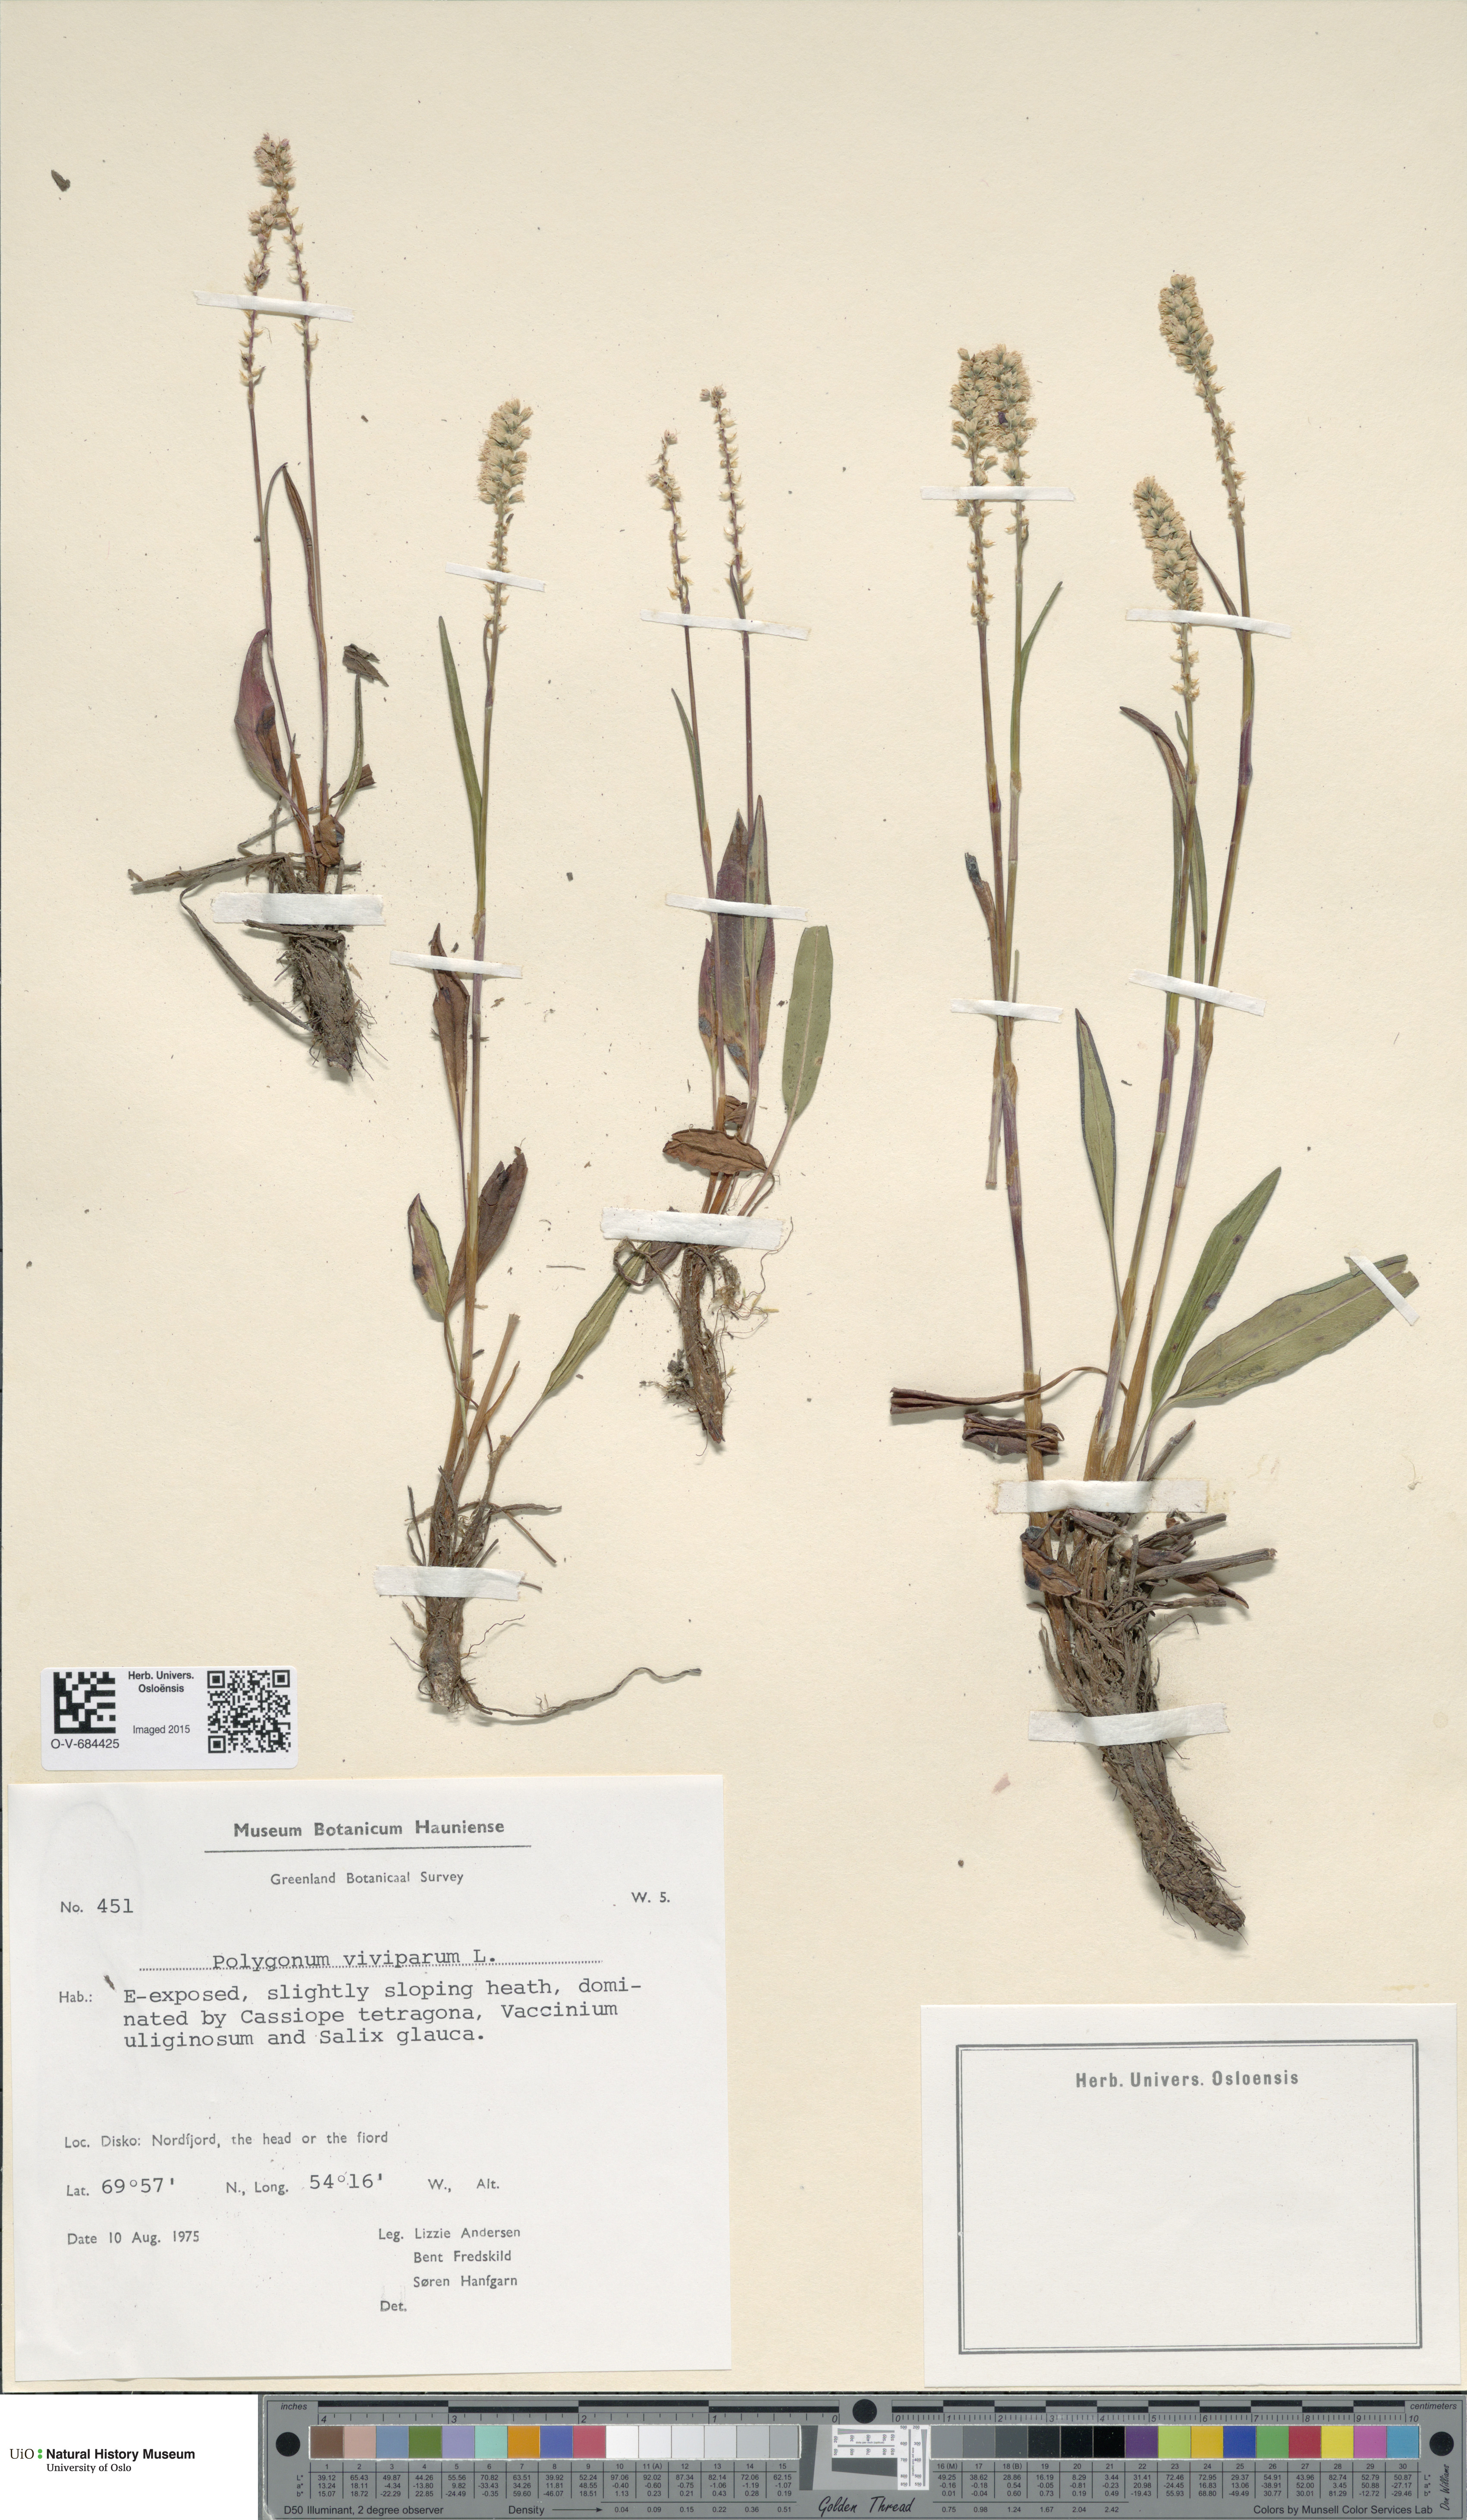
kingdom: Plantae
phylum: Tracheophyta
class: Magnoliopsida
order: Caryophyllales
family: Polygonaceae
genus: Bistorta
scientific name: Bistorta vivipara
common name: Alpine bistort
